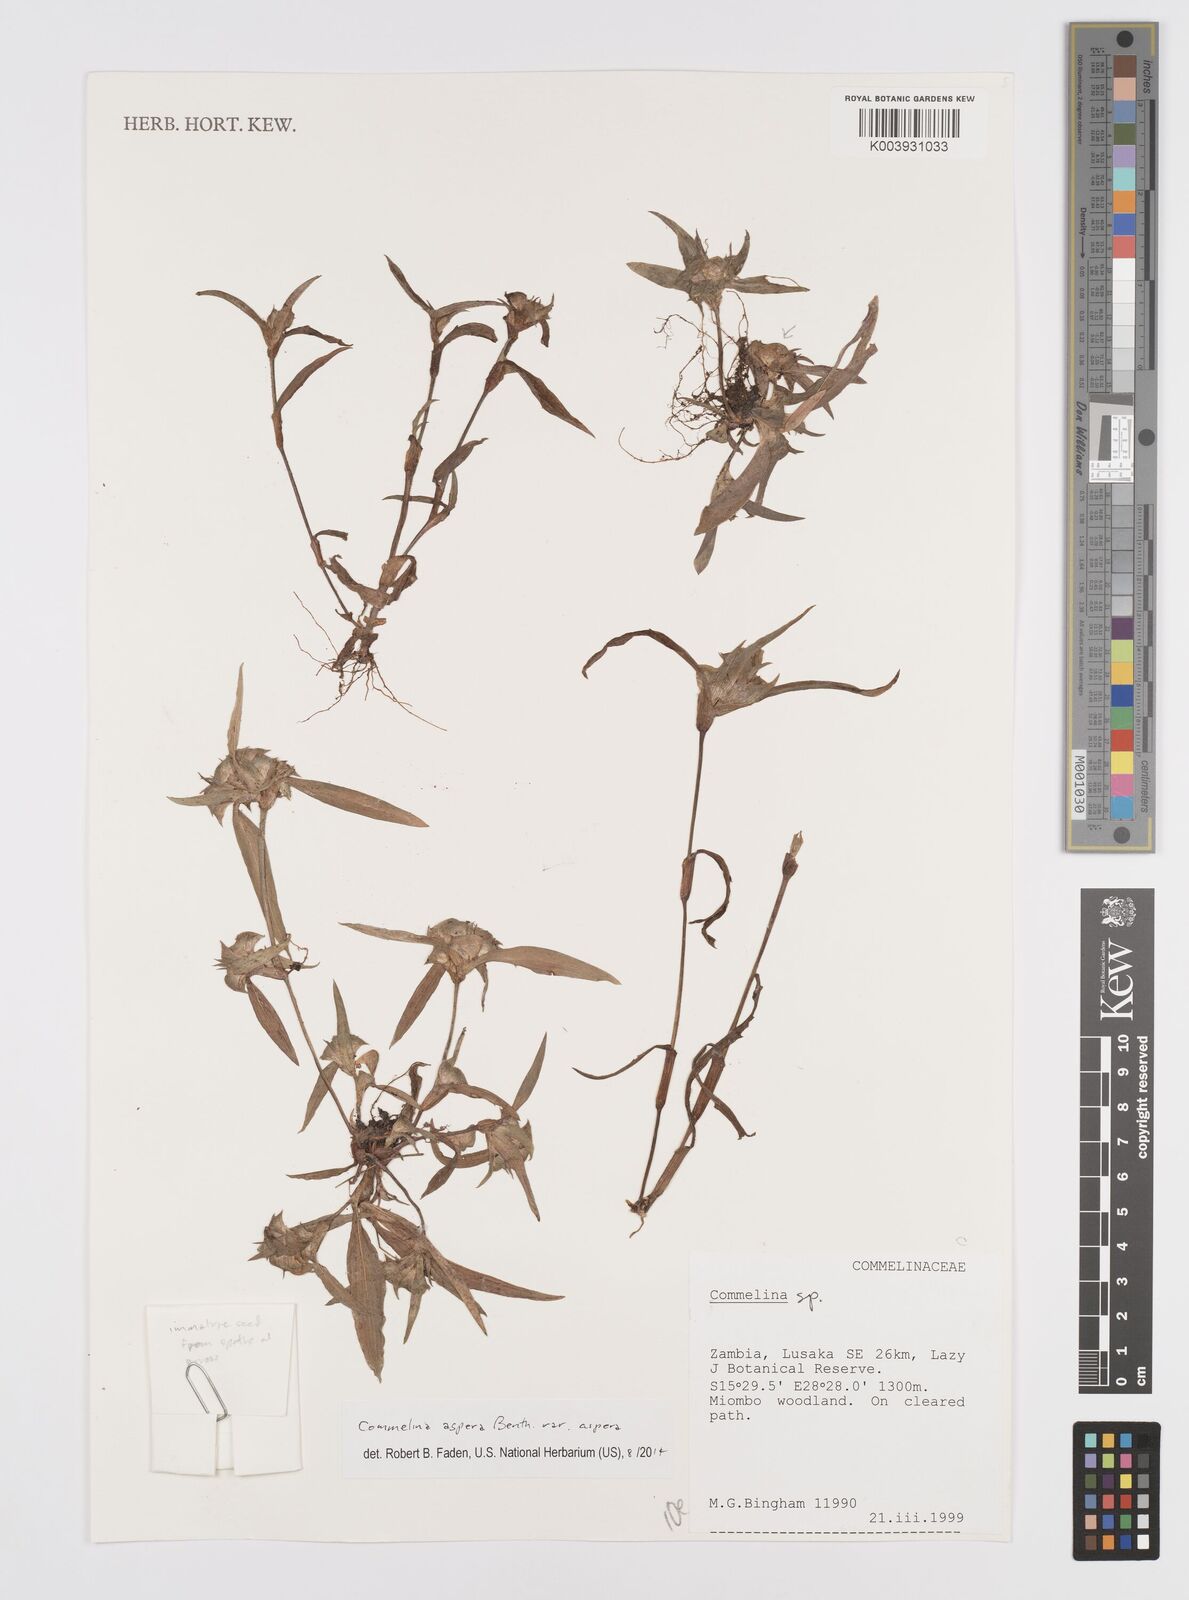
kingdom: Plantae
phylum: Tracheophyta
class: Liliopsida
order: Commelinales
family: Commelinaceae
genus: Commelina
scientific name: Commelina aspera
